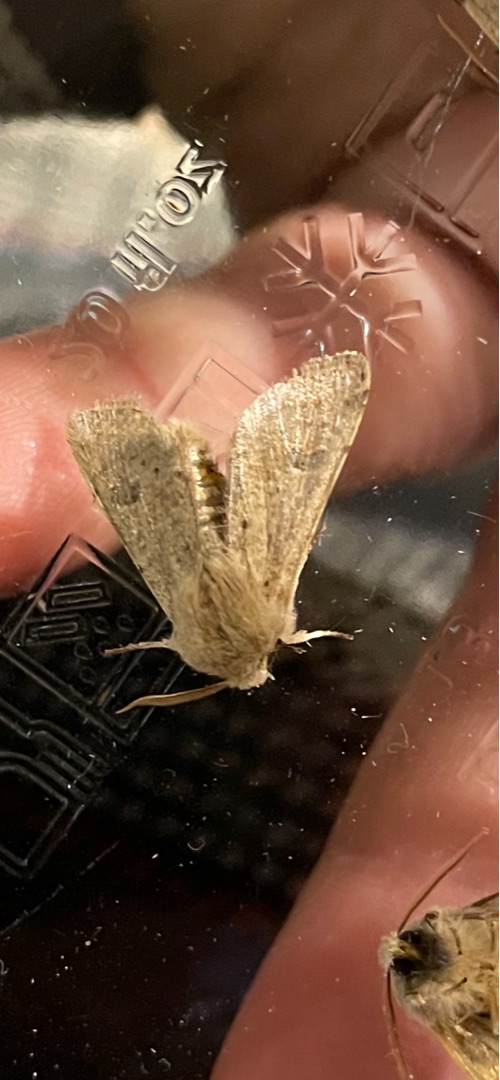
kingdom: Animalia
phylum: Arthropoda
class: Insecta
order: Lepidoptera
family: Noctuidae
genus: Orthosia
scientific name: Orthosia cruda
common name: Lille forårsugle
